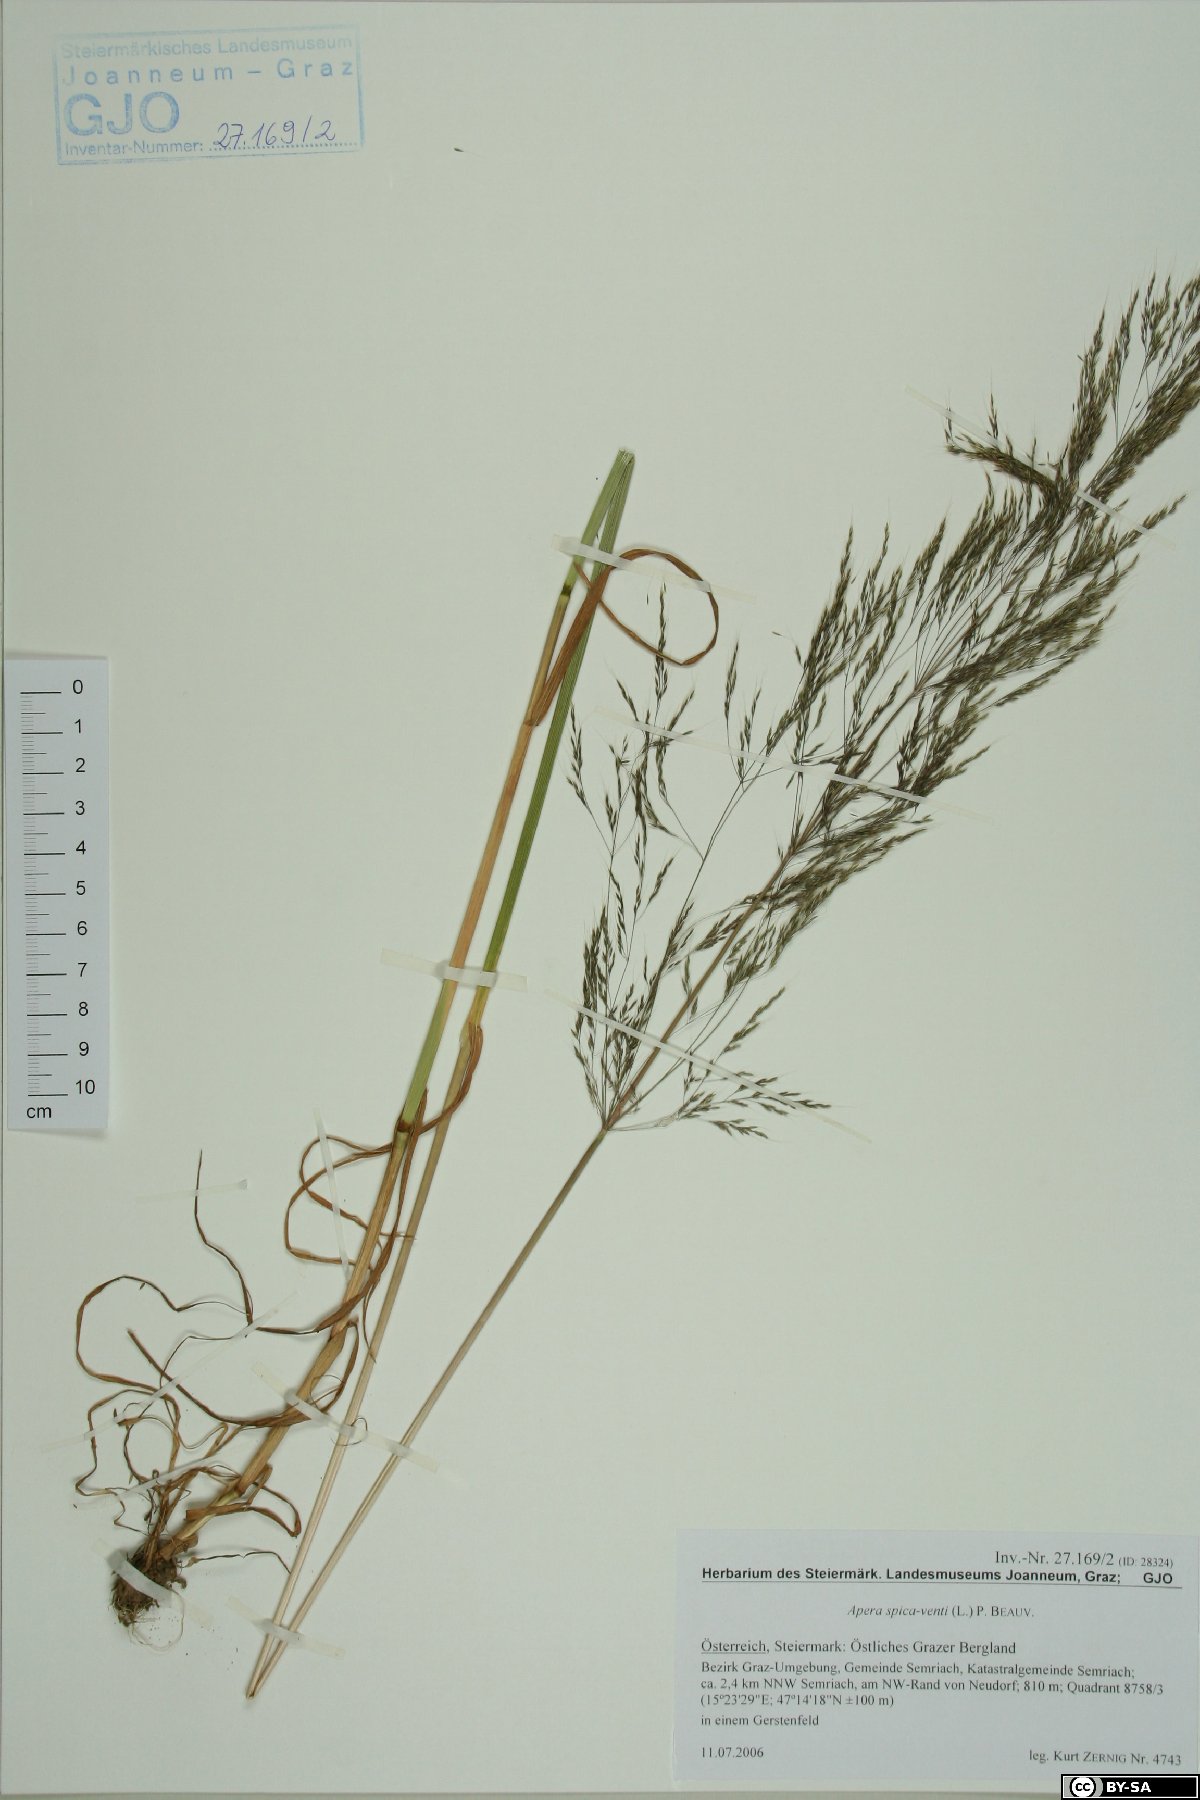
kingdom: Plantae
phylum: Tracheophyta
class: Liliopsida
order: Poales
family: Poaceae
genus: Apera
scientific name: Apera spica-venti
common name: Loose silky-bent
